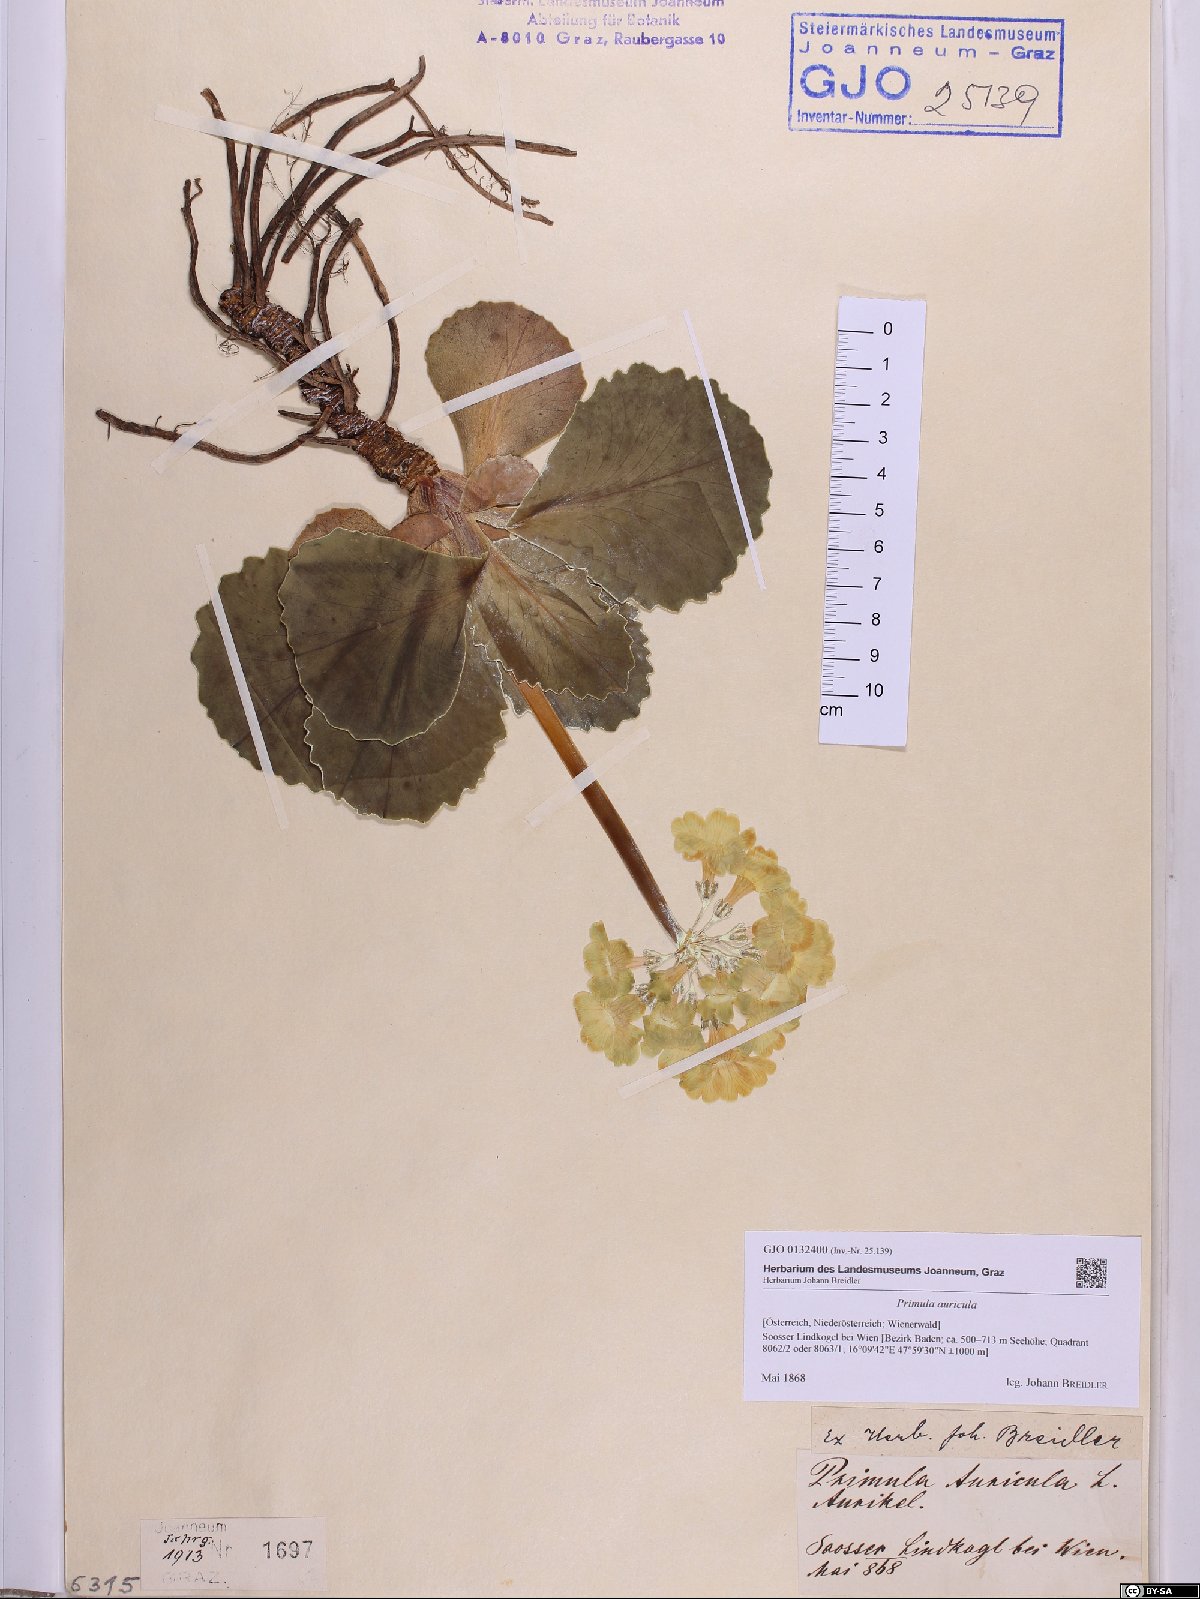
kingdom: Plantae
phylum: Tracheophyta
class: Magnoliopsida
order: Ericales
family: Primulaceae
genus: Primula
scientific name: Primula auricula
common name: Auricula
